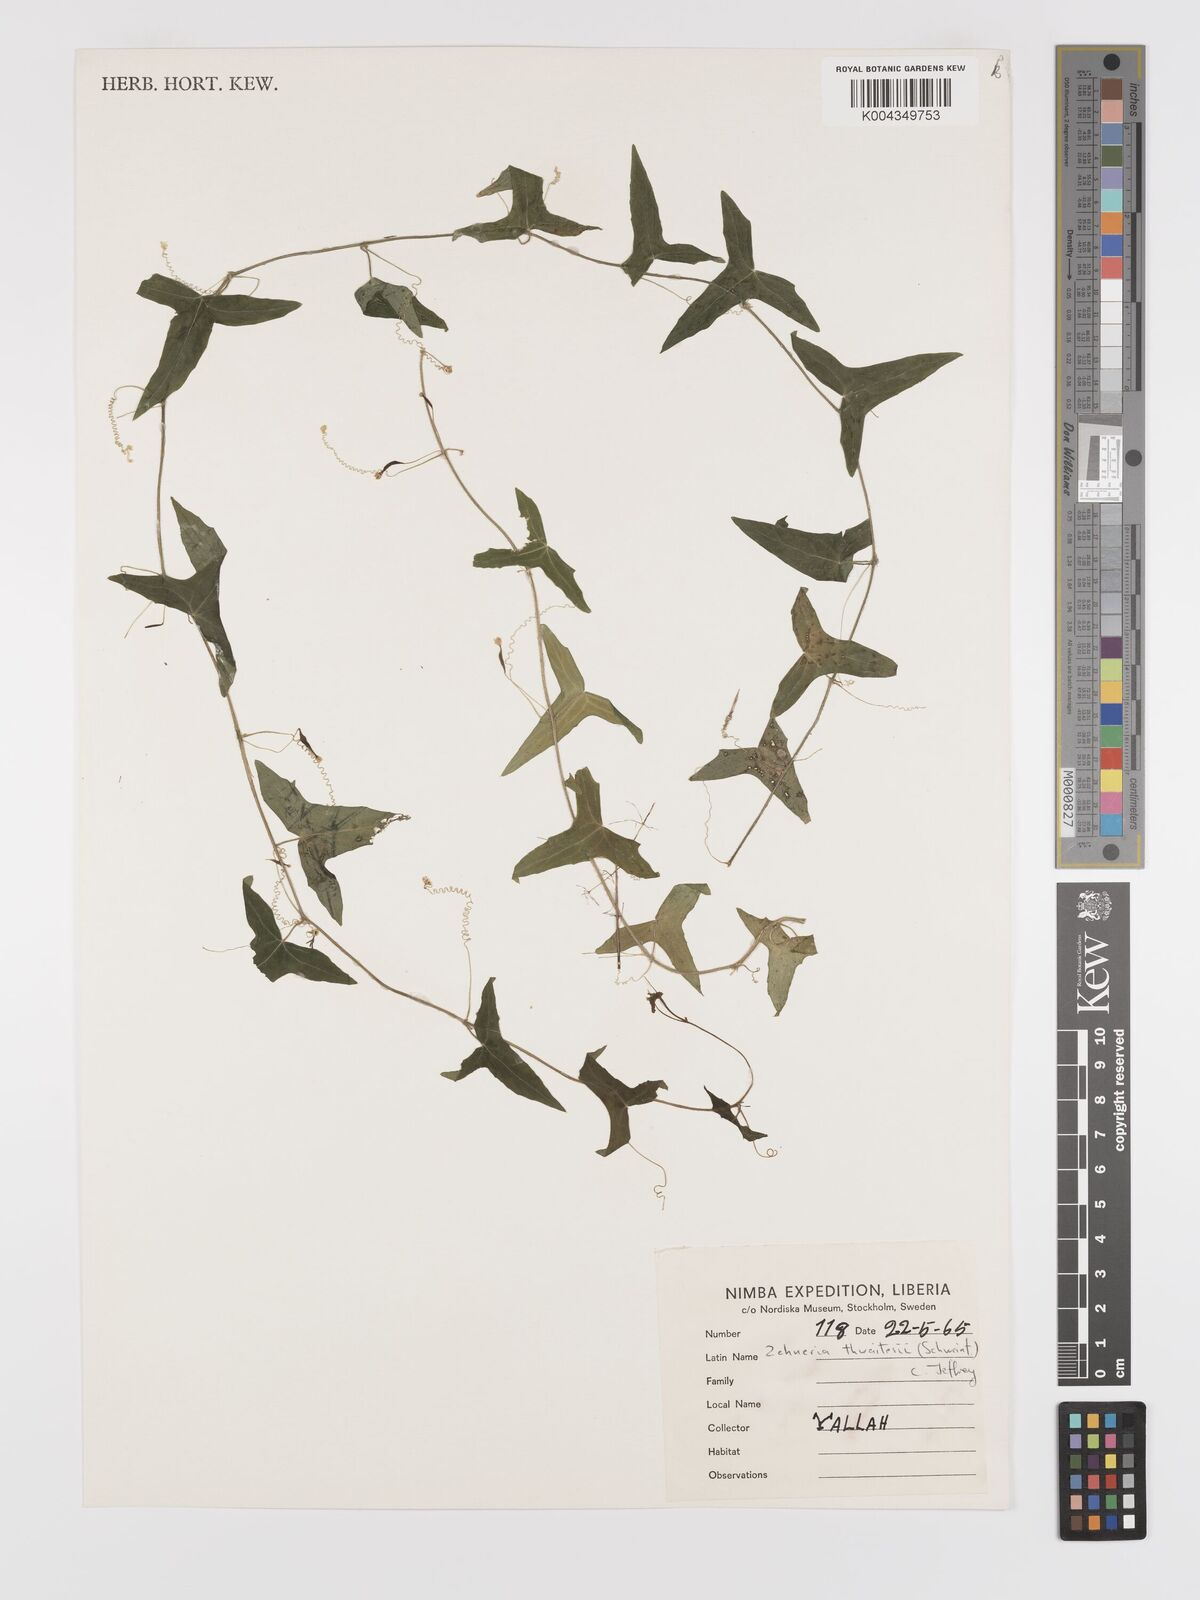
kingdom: Plantae
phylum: Tracheophyta
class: Magnoliopsida
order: Cucurbitales
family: Cucurbitaceae
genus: Zehneria
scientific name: Zehneria thwaitesii
